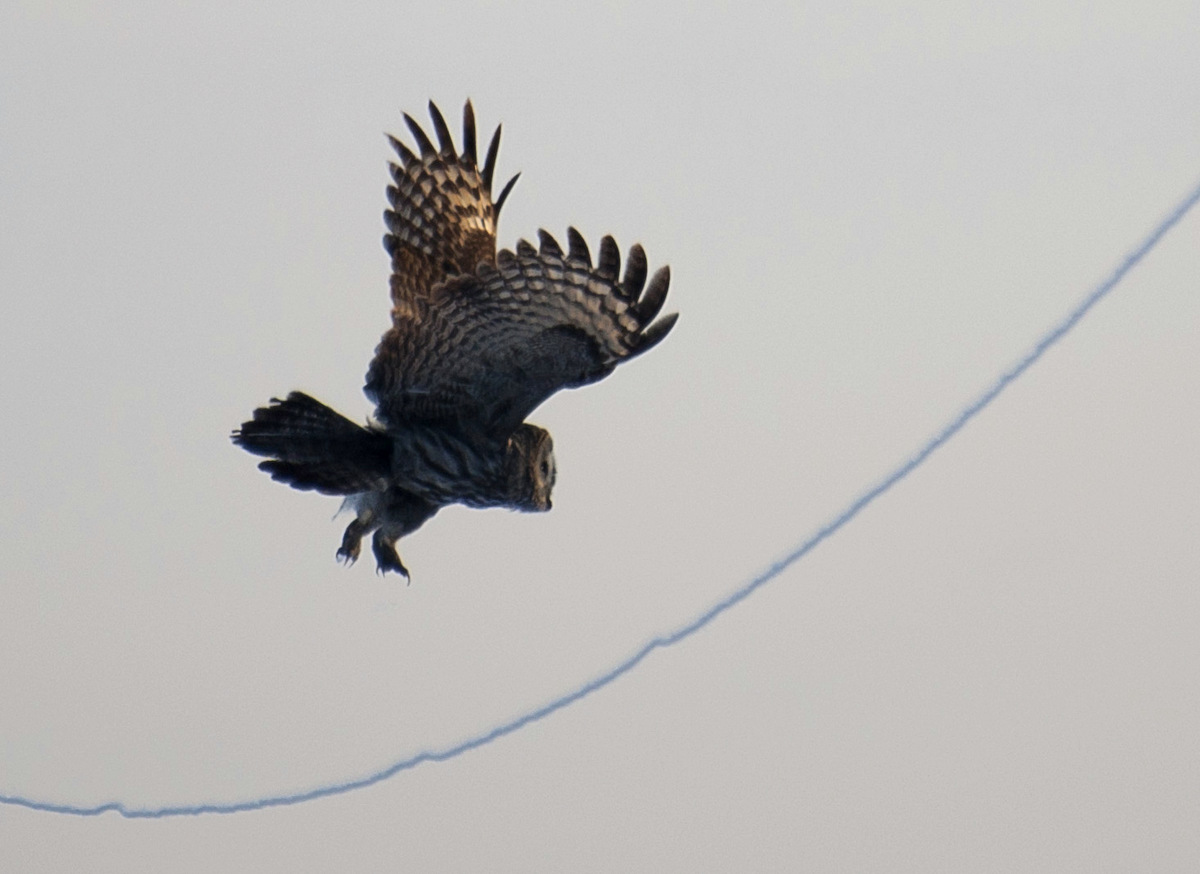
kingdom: Animalia
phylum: Chordata
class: Aves
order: Strigiformes
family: Strigidae
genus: Strix
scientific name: Strix nebulosa
